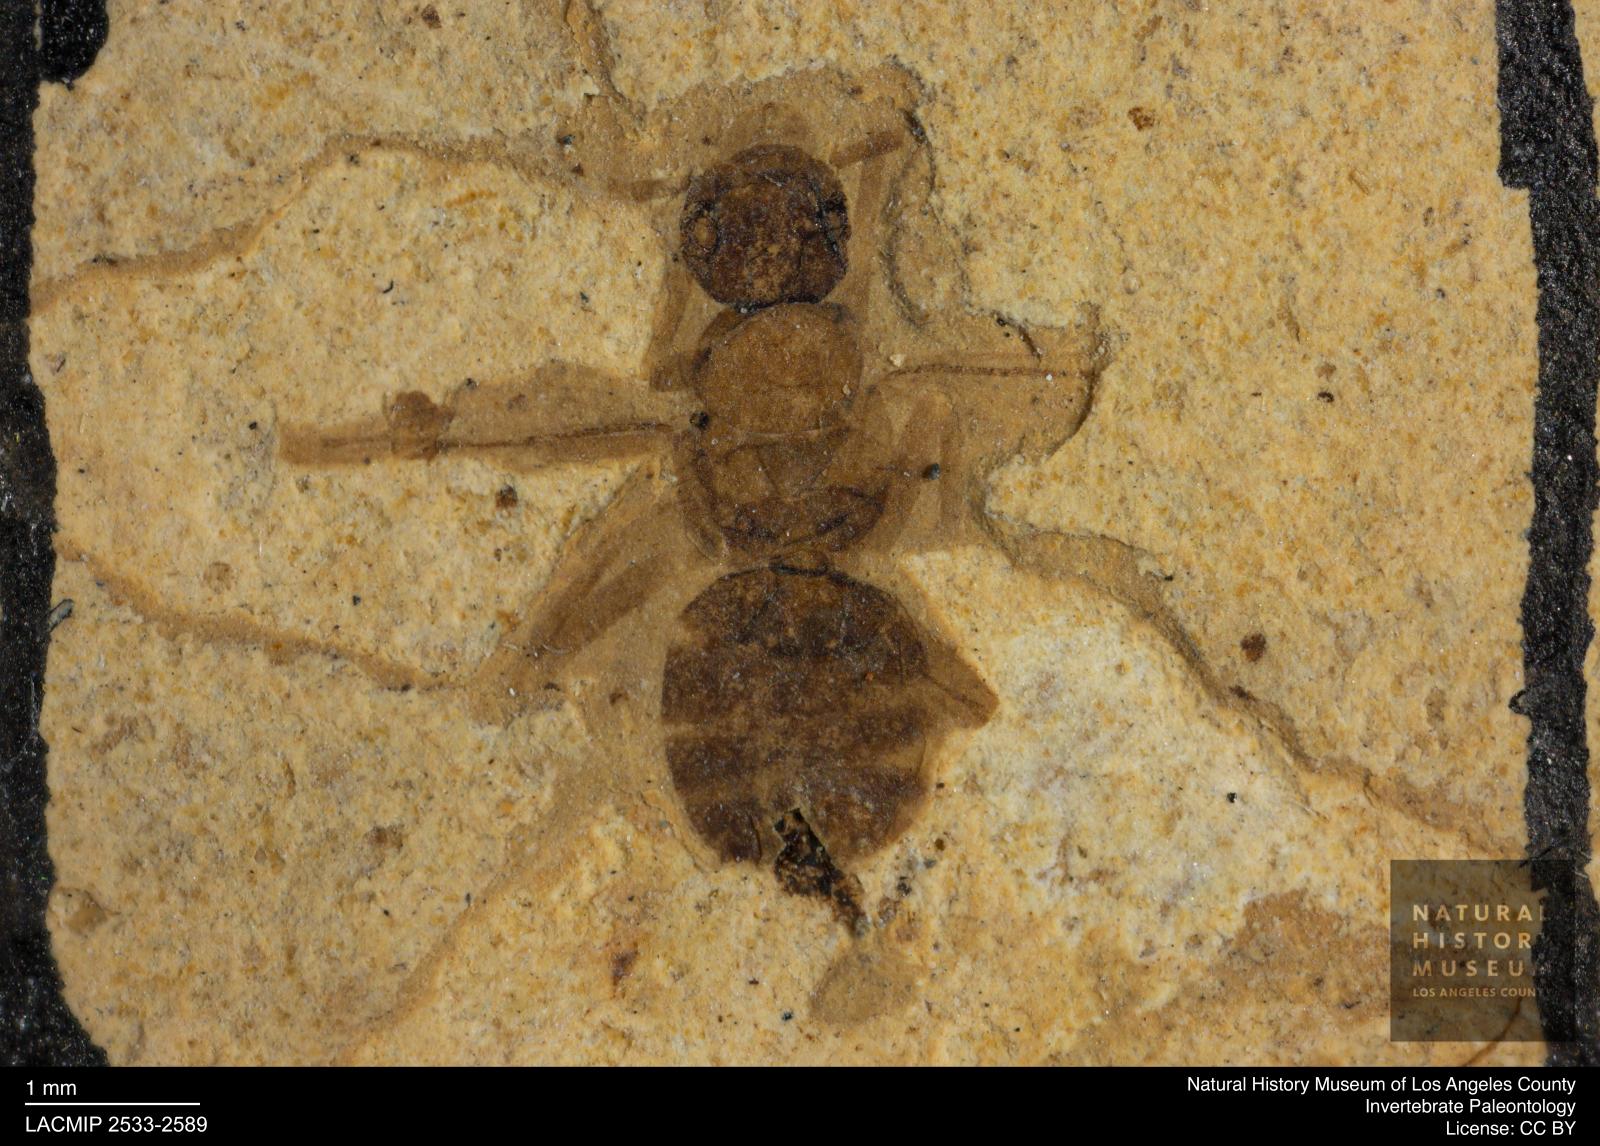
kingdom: Animalia
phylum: Arthropoda
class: Insecta
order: Hymenoptera
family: Formicidae
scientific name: Formicidae
